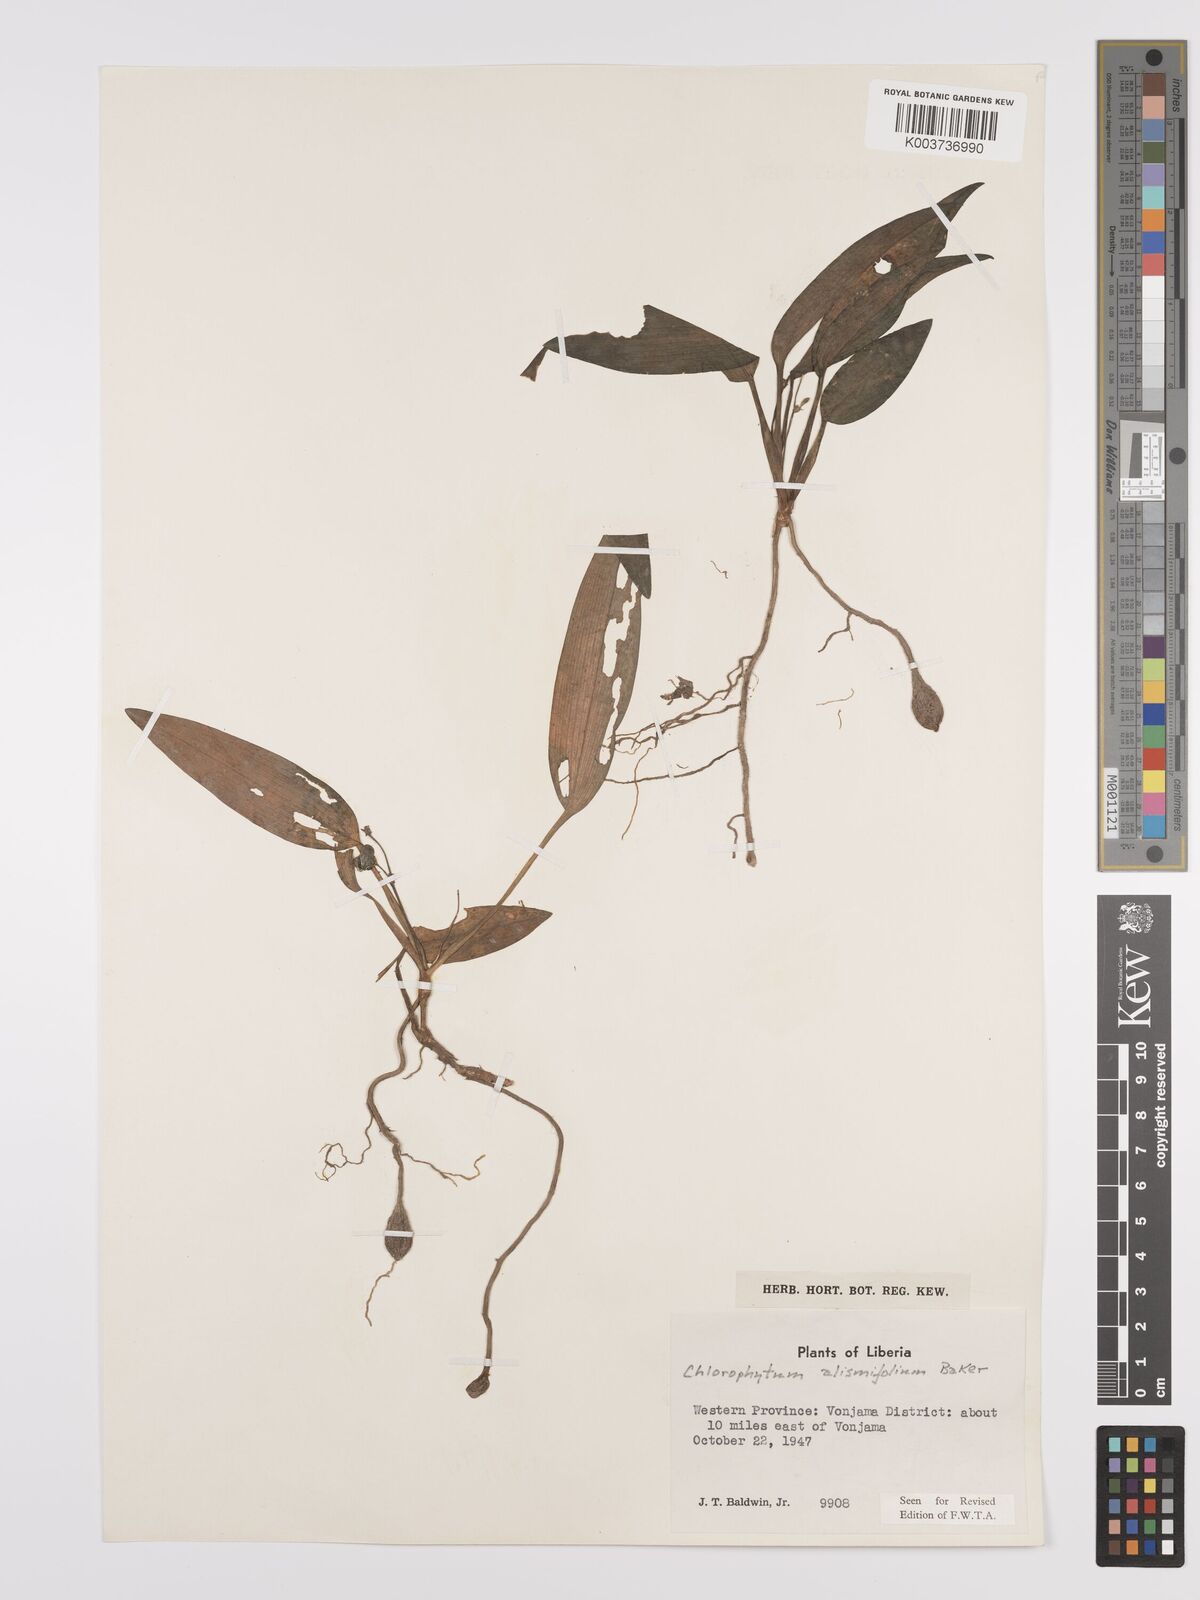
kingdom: Plantae
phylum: Tracheophyta
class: Liliopsida
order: Asparagales
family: Asparagaceae
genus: Chlorophytum
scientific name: Chlorophytum alismifolium
